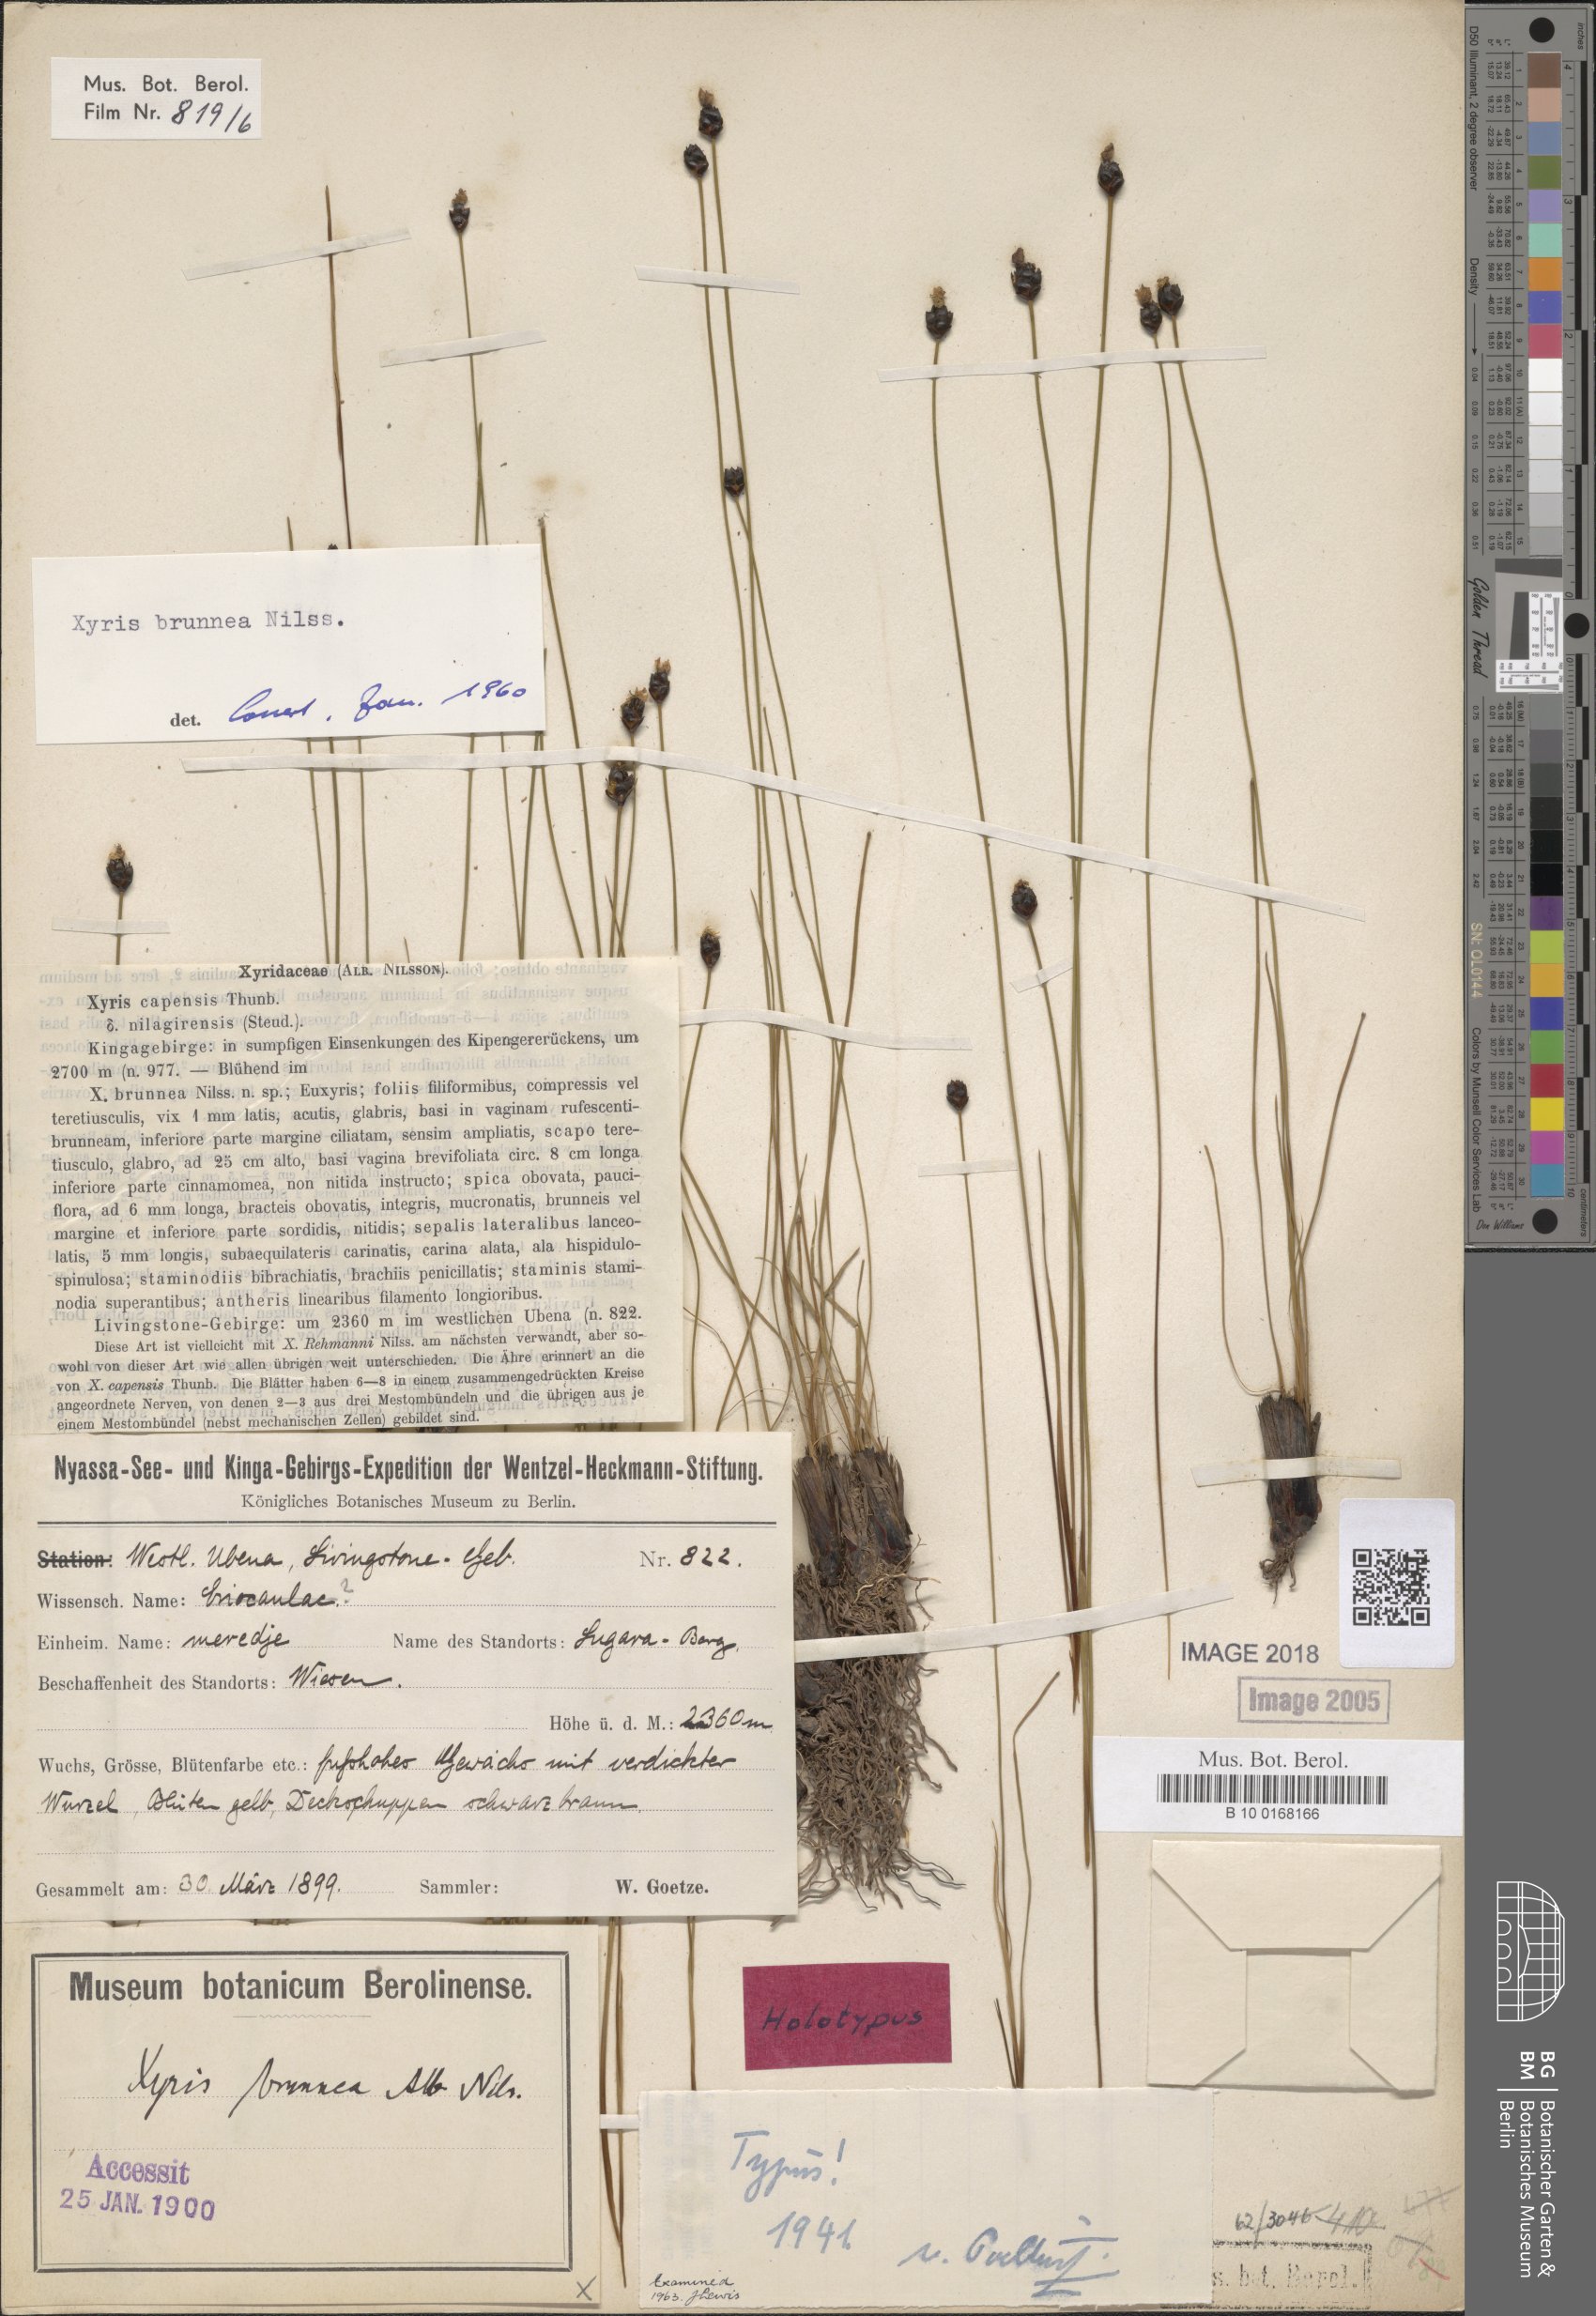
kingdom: Plantae
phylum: Tracheophyta
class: Liliopsida
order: Poales
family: Xyridaceae
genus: Xyris
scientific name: Xyris obscura
